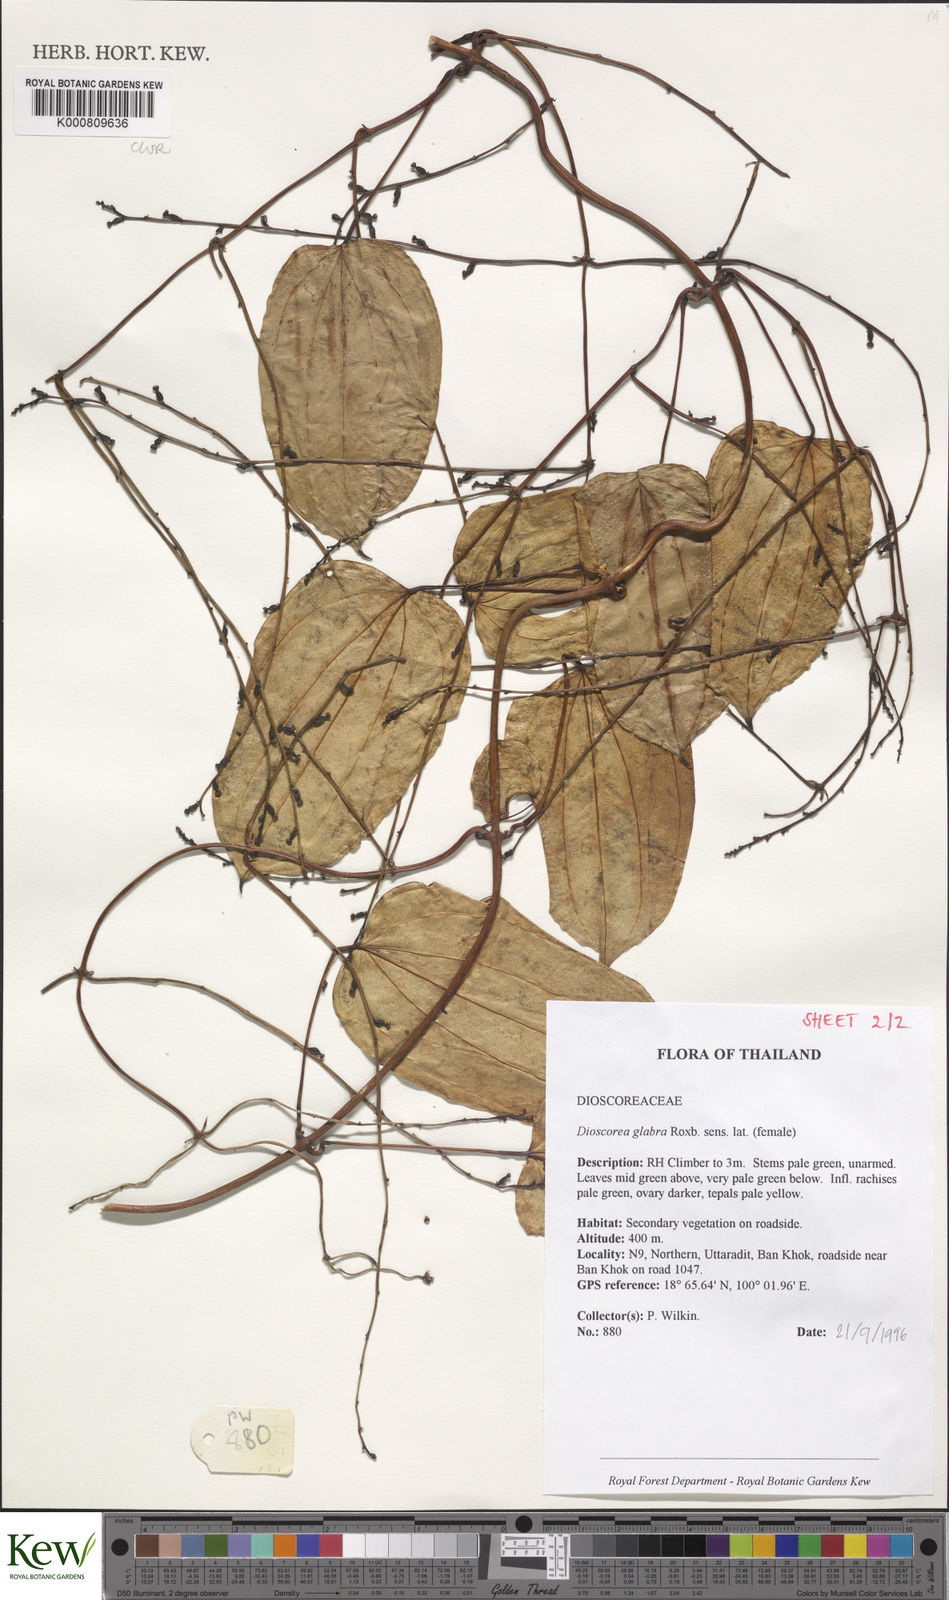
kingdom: Plantae
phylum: Tracheophyta
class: Liliopsida
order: Dioscoreales
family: Dioscoreaceae
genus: Dioscorea
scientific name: Dioscorea glabra
